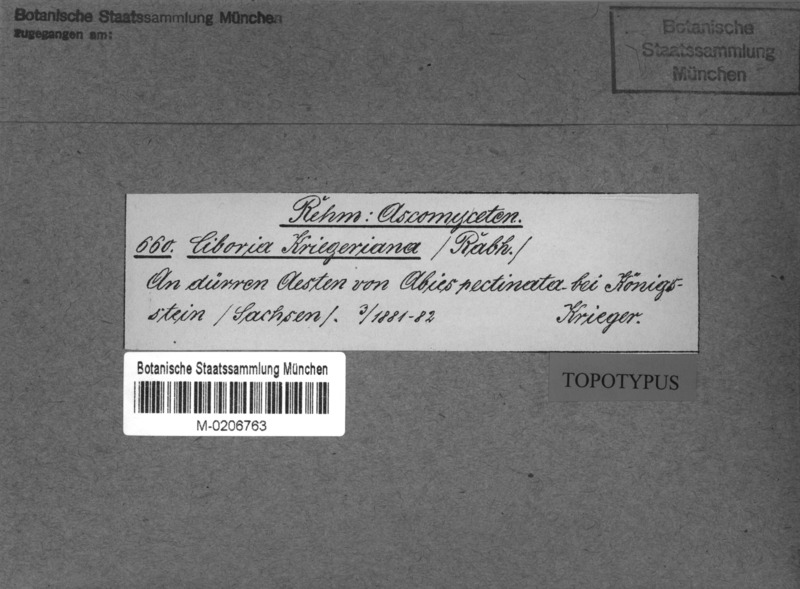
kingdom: Fungi
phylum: Ascomycota
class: Leotiomycetes
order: Helotiales
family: Rutstroemiaceae
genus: Rutstroemia
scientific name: Rutstroemia elatina
